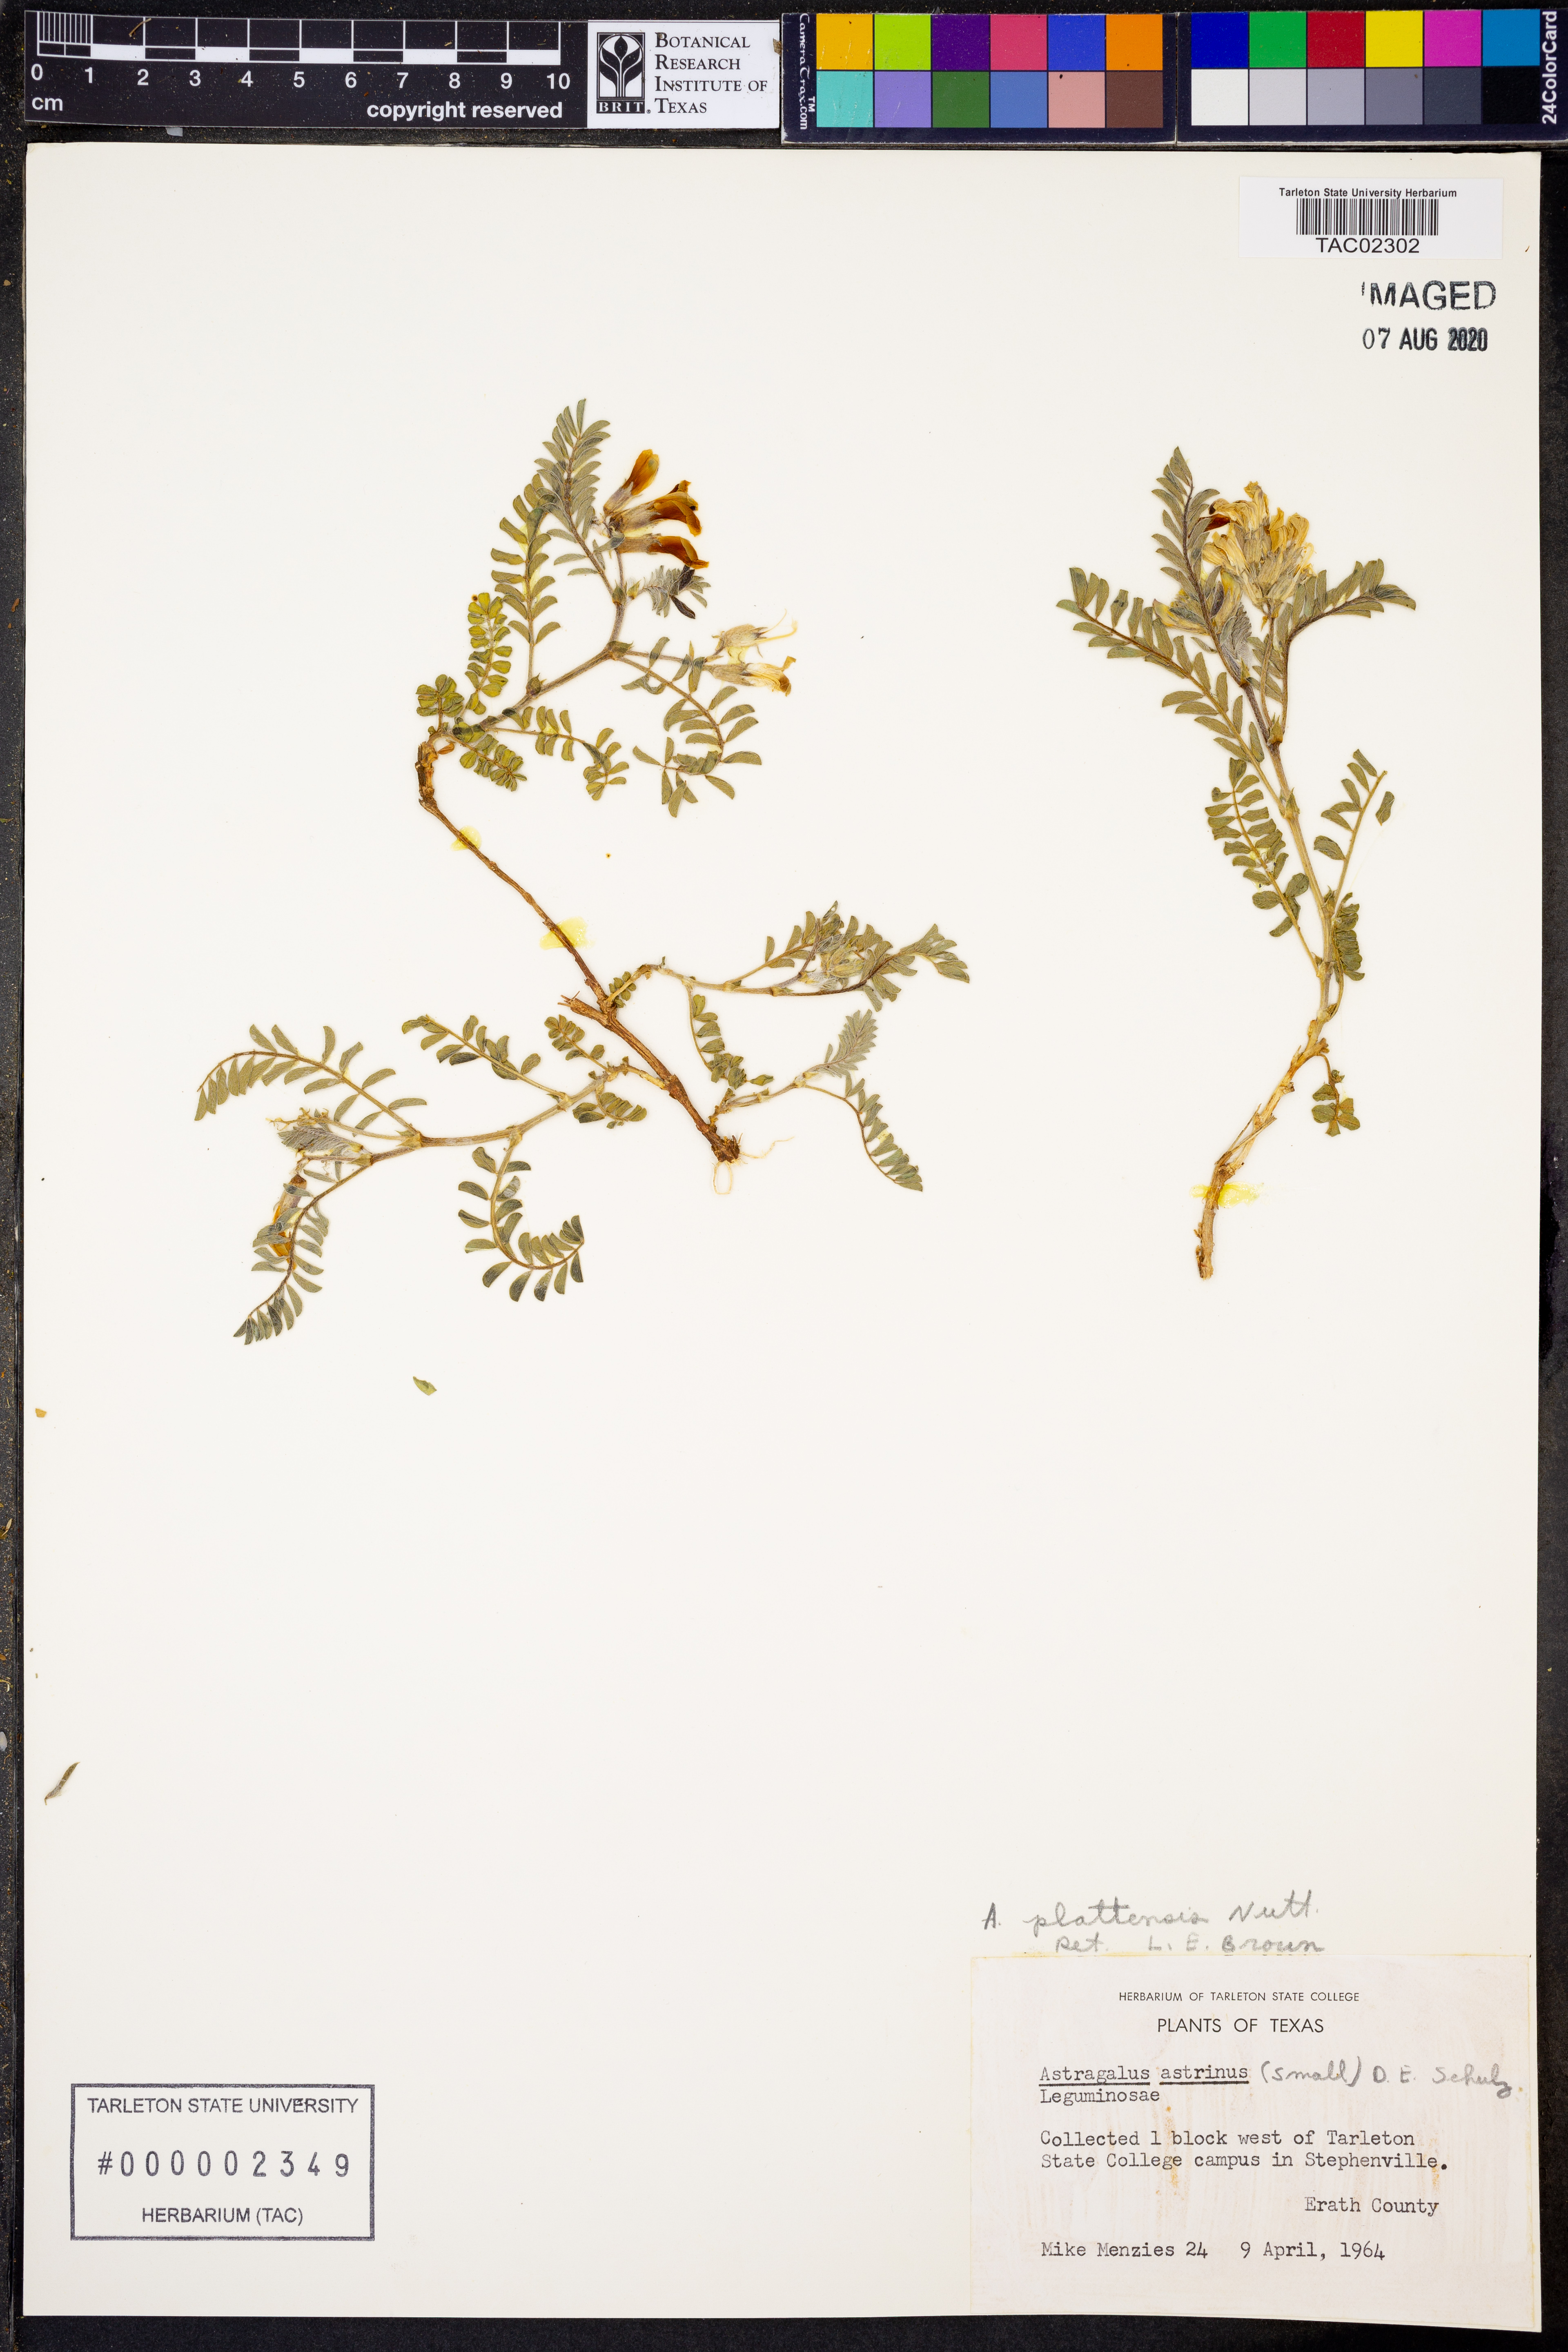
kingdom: Plantae
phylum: Tracheophyta
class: Magnoliopsida
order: Fabales
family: Fabaceae
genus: Astragalus
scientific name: Astragalus plattensis
